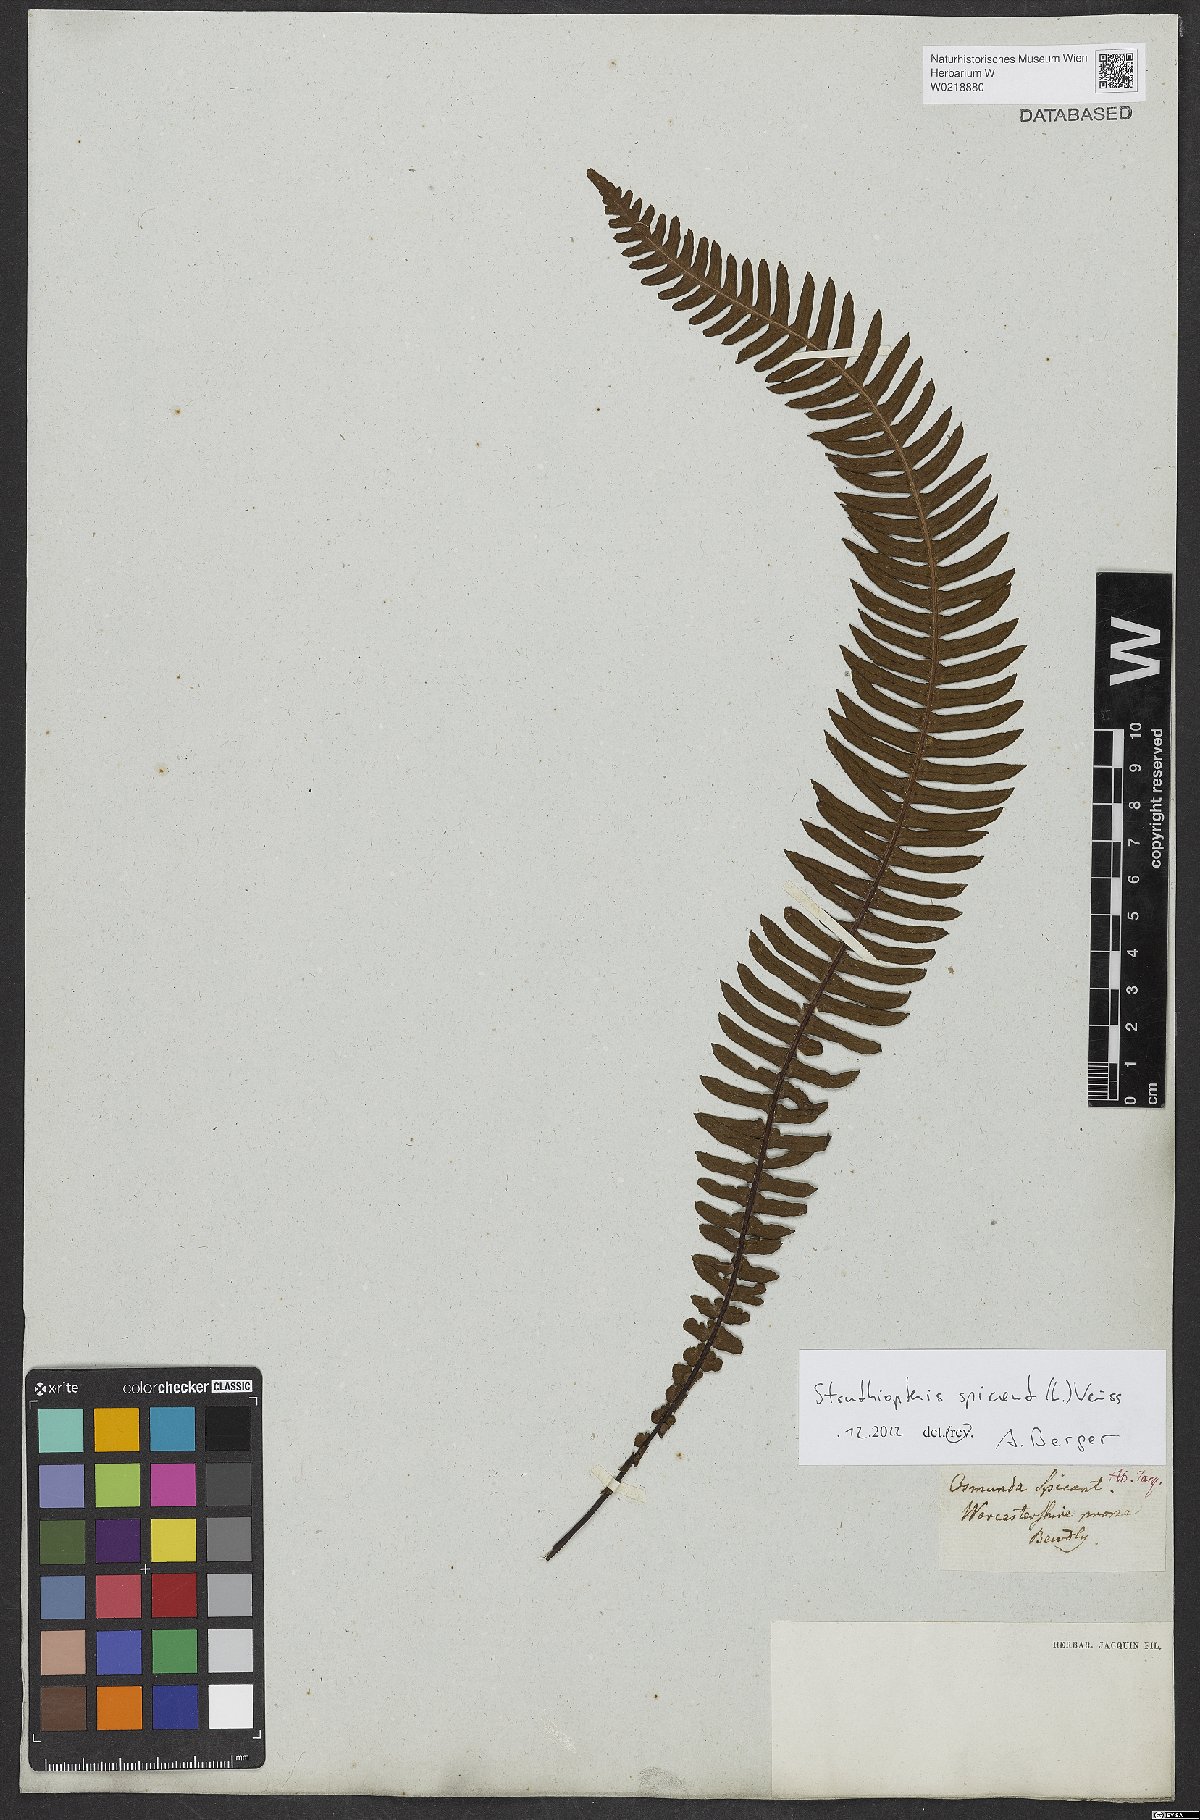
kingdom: Plantae
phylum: Tracheophyta
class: Polypodiopsida
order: Polypodiales
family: Blechnaceae
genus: Struthiopteris
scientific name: Struthiopteris spicant
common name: Deer fern
